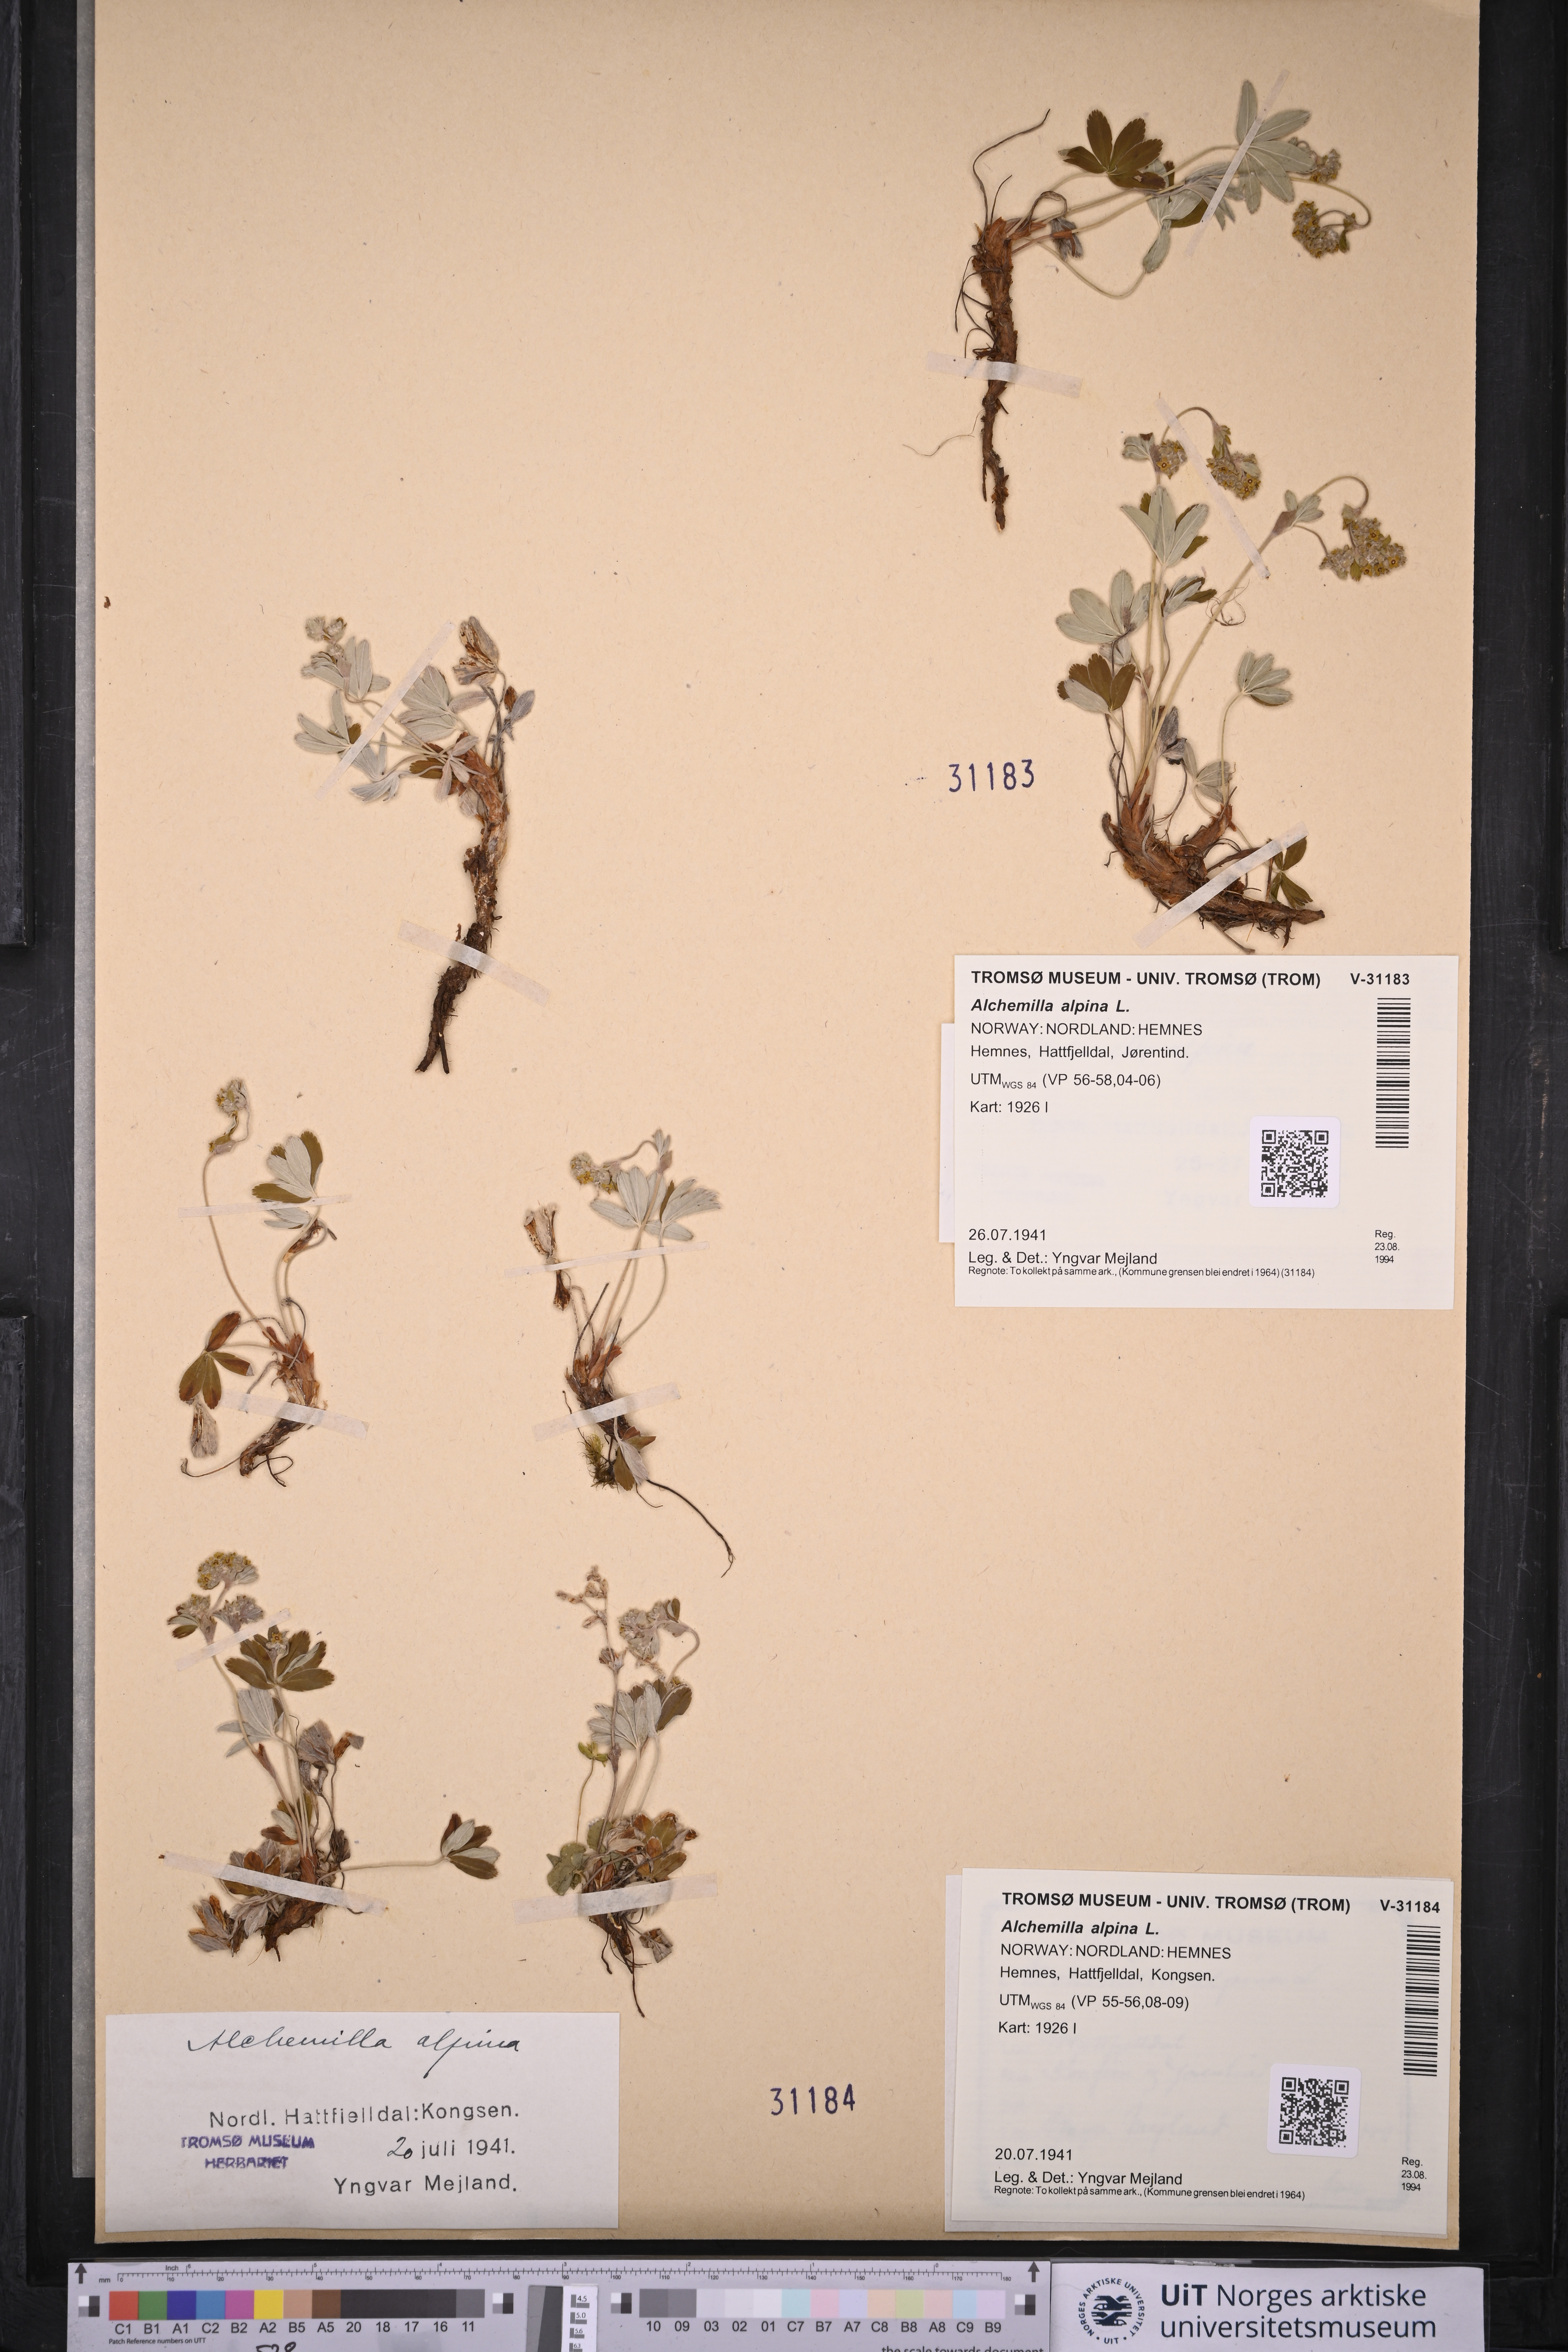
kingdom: Plantae
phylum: Tracheophyta
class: Magnoliopsida
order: Rosales
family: Rosaceae
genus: Alchemilla
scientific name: Alchemilla alpina
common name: Alpine lady's-mantle
